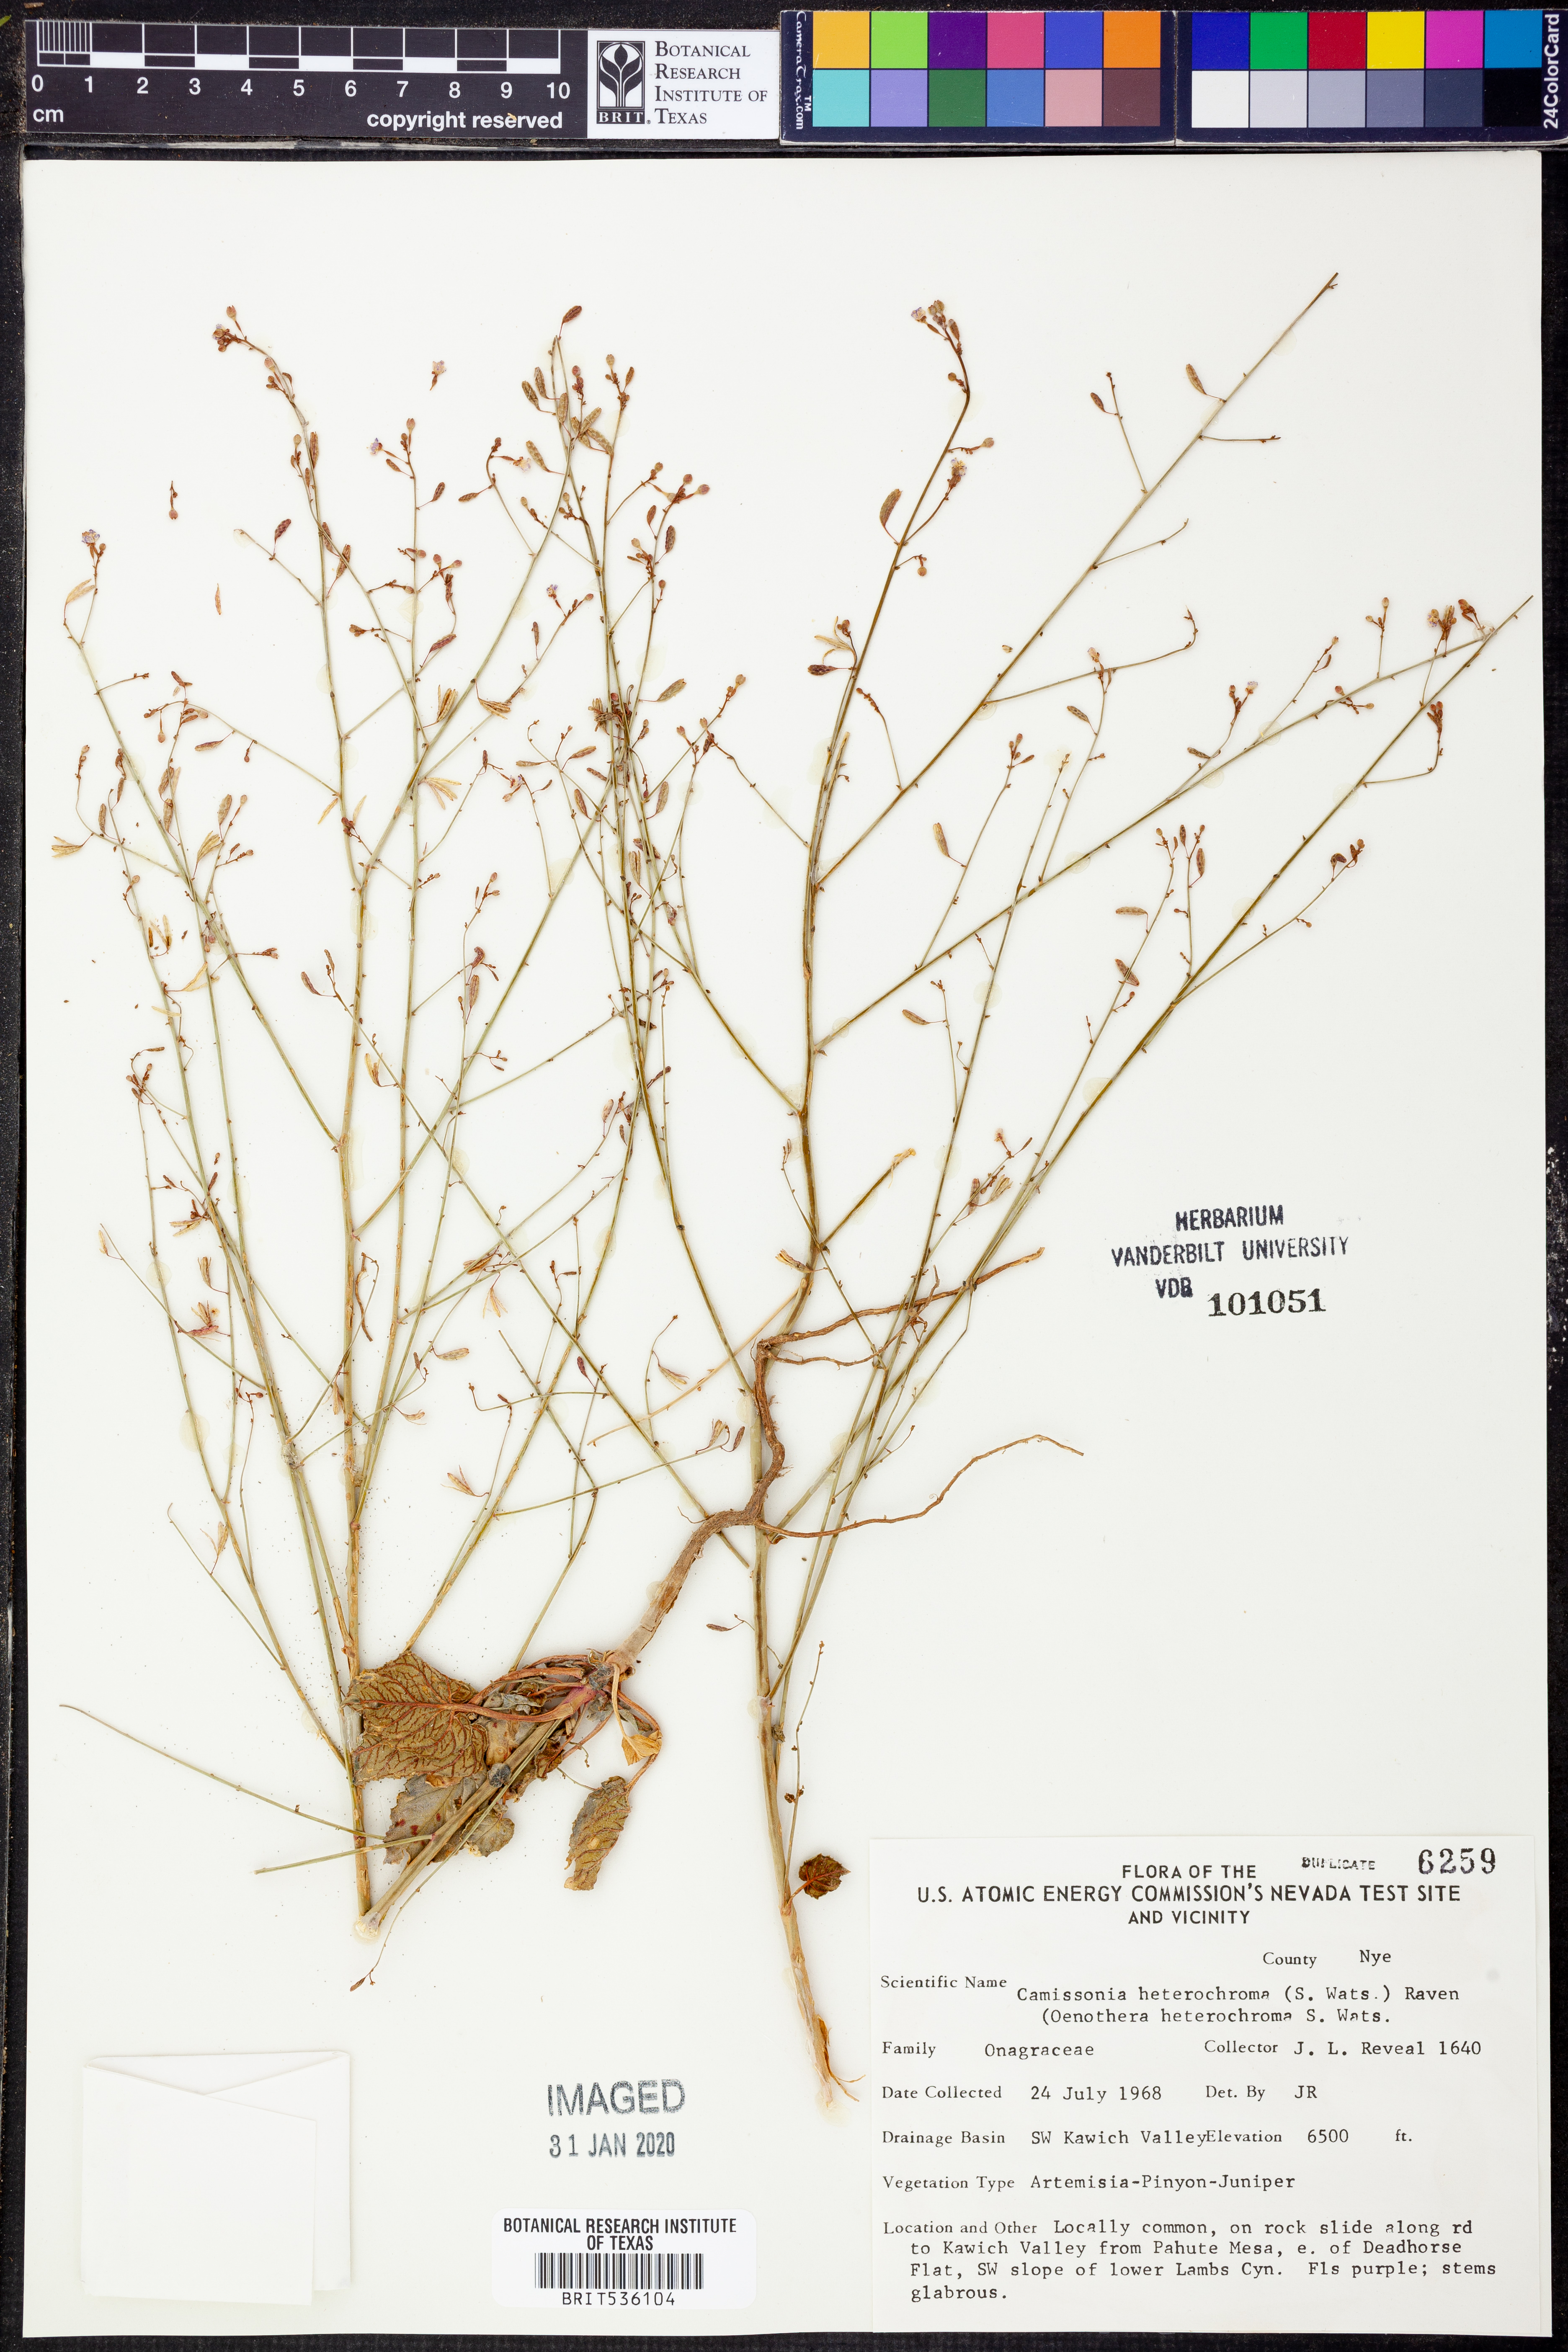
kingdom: Plantae
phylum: Tracheophyta
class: Magnoliopsida
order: Myrtales
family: Onagraceae
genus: Chylismia
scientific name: Chylismia heterochroma
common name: Shockley's evening primrose
